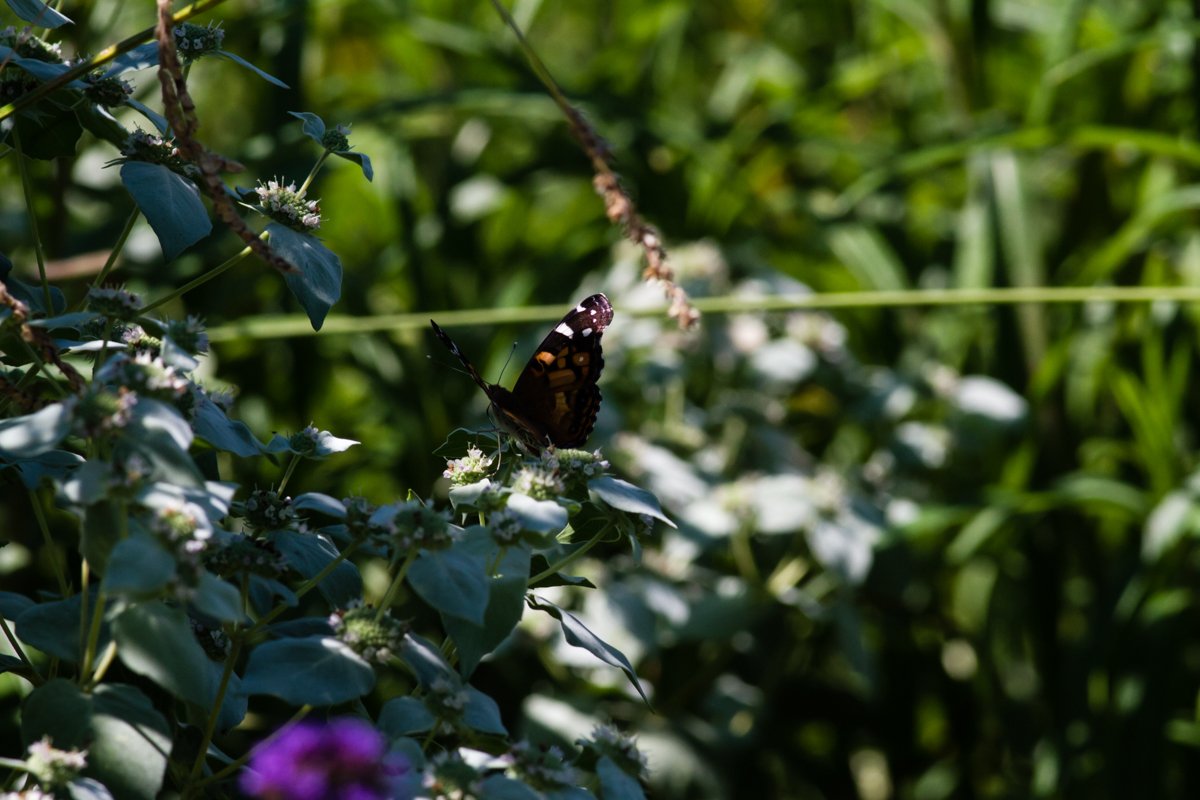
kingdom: Animalia
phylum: Arthropoda
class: Insecta
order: Lepidoptera
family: Nymphalidae
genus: Vanessa
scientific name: Vanessa virginiensis
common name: American Lady
